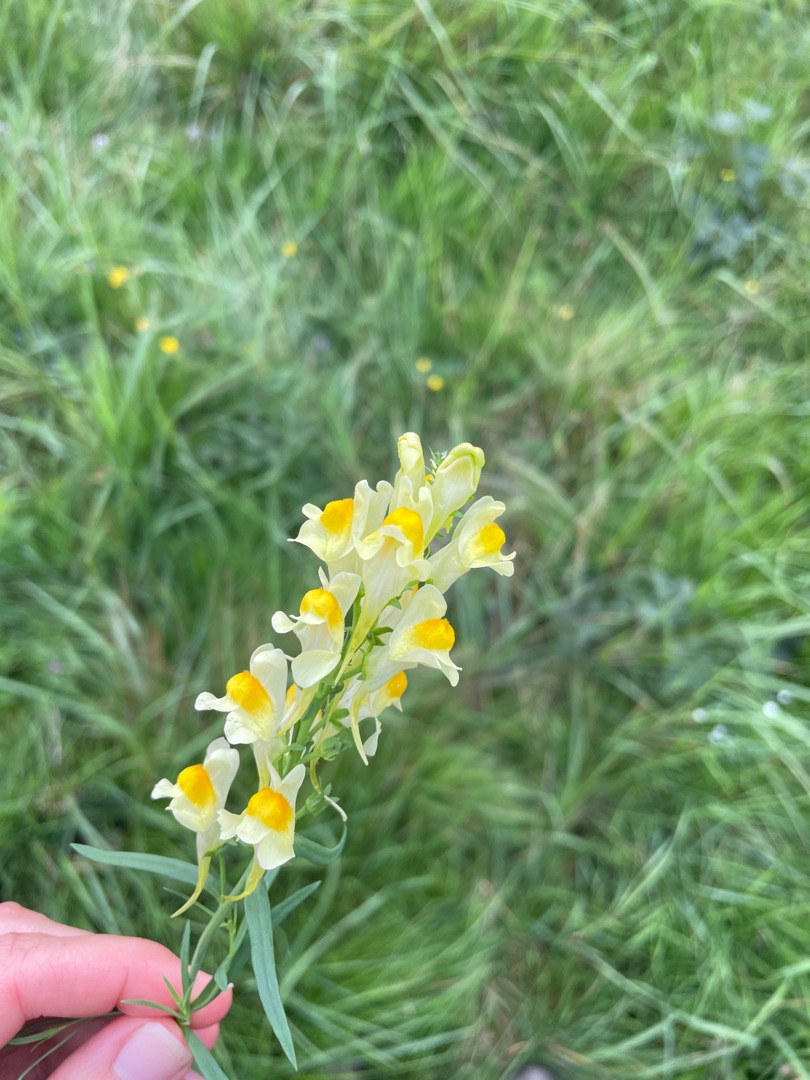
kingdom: Plantae
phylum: Tracheophyta
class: Magnoliopsida
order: Lamiales
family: Plantaginaceae
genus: Linaria
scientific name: Linaria vulgaris
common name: Almindelig torskemund
